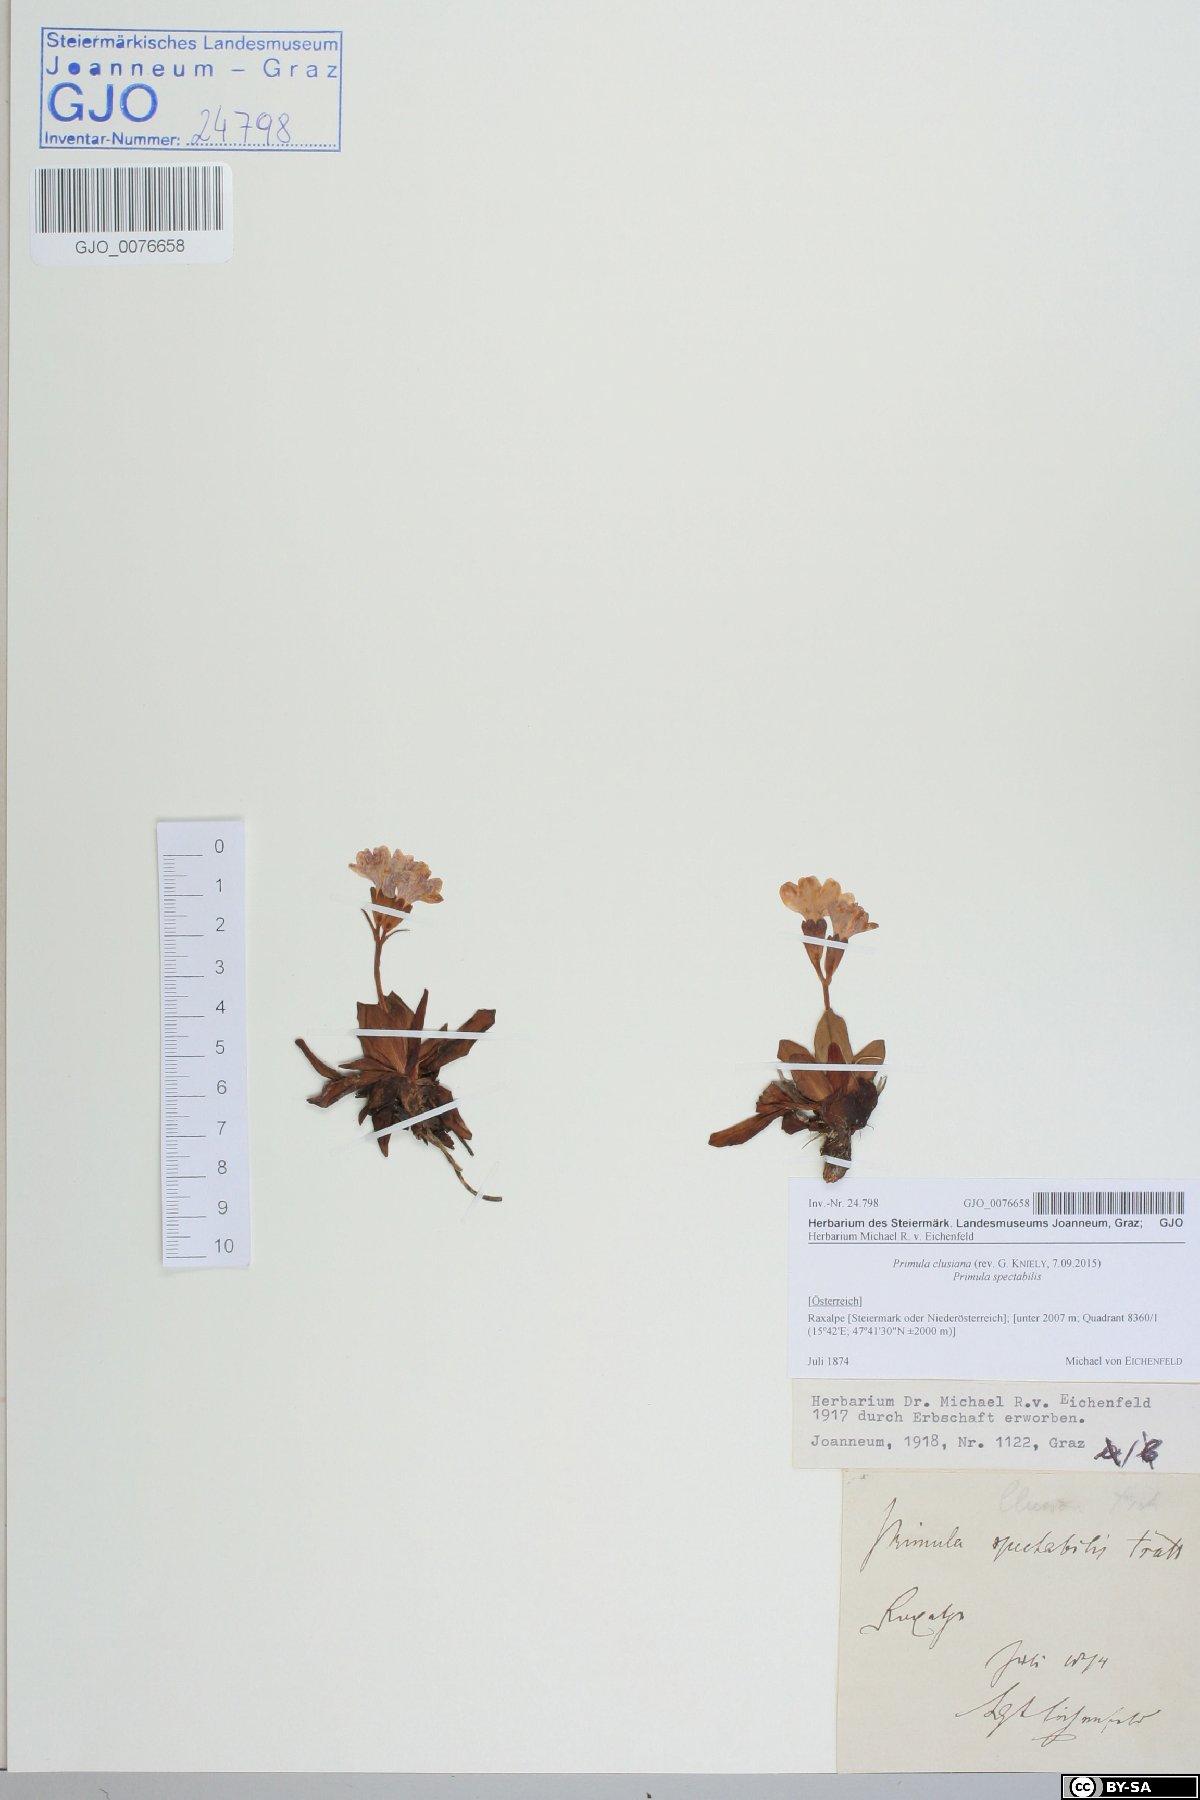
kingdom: Plantae
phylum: Tracheophyta
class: Magnoliopsida
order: Ericales
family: Primulaceae
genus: Primula
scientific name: Primula clusiana
